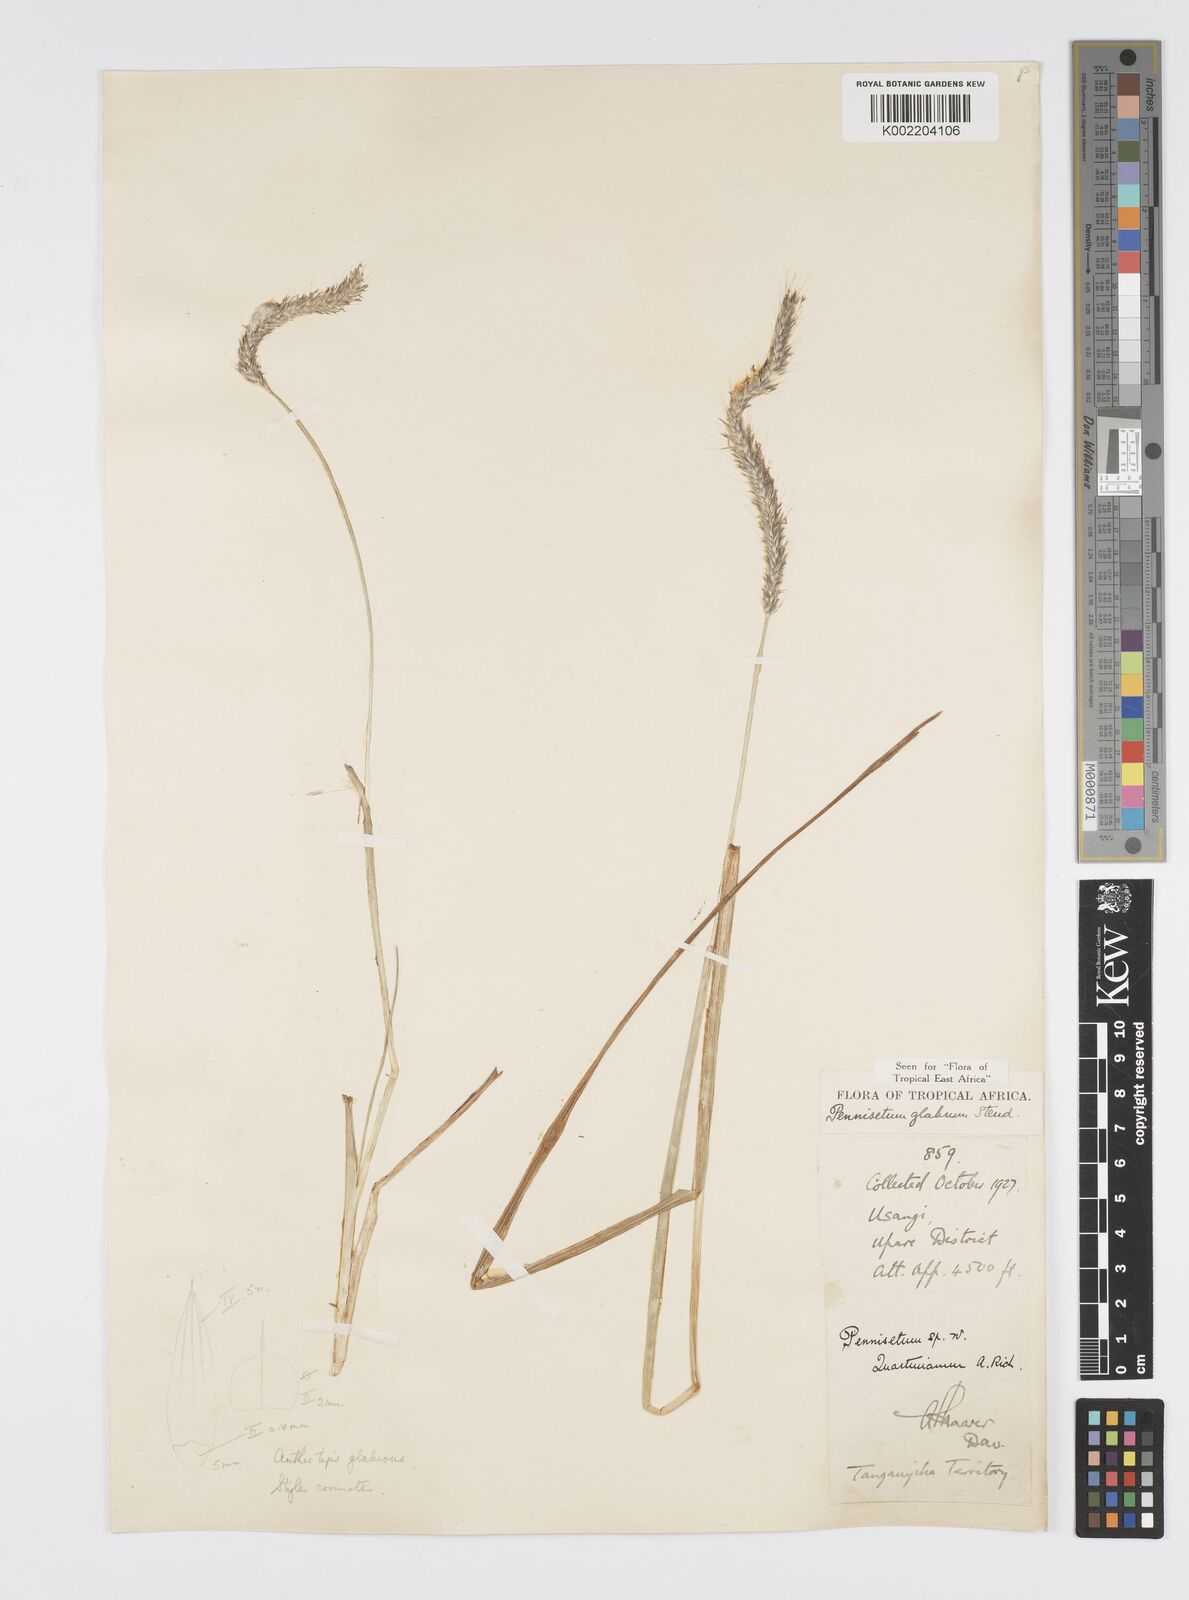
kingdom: Plantae
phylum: Tracheophyta
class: Liliopsida
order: Poales
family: Poaceae
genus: Cenchrus
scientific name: Cenchrus geniculatus
